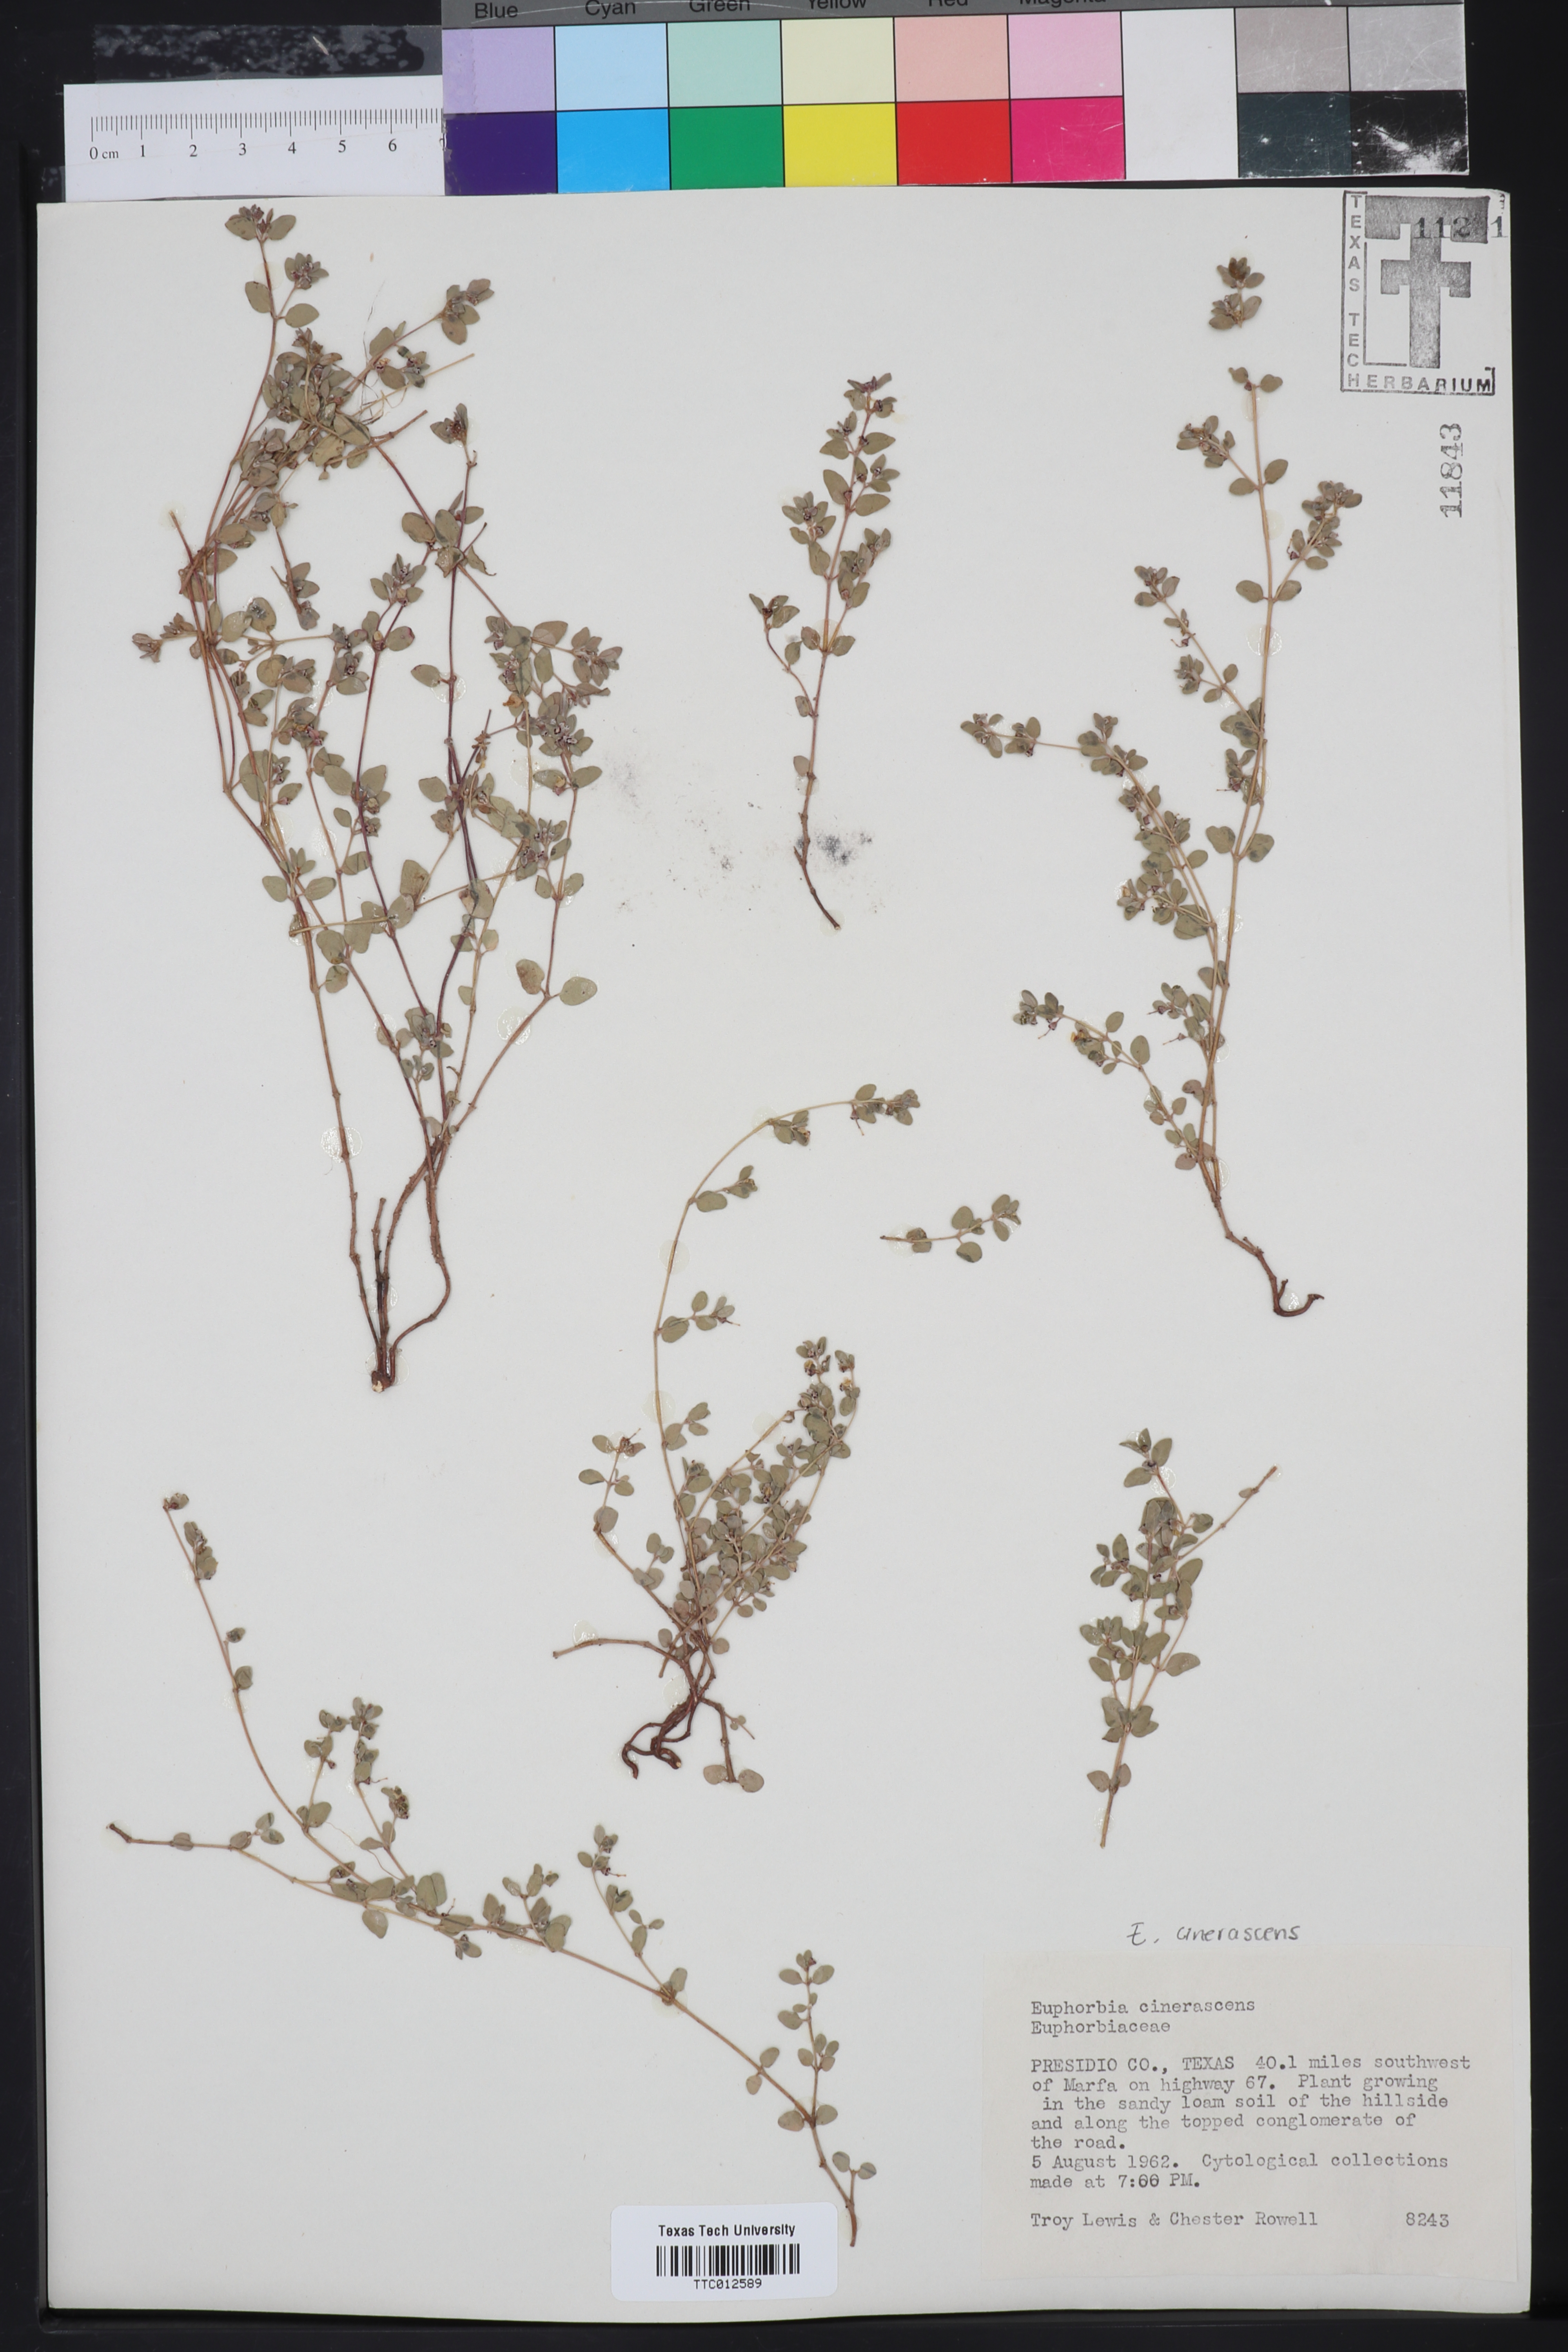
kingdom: Plantae
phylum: Tracheophyta
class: Magnoliopsida
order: Malpighiales
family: Euphorbiaceae
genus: Euphorbia
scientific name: Euphorbia cinerascens
